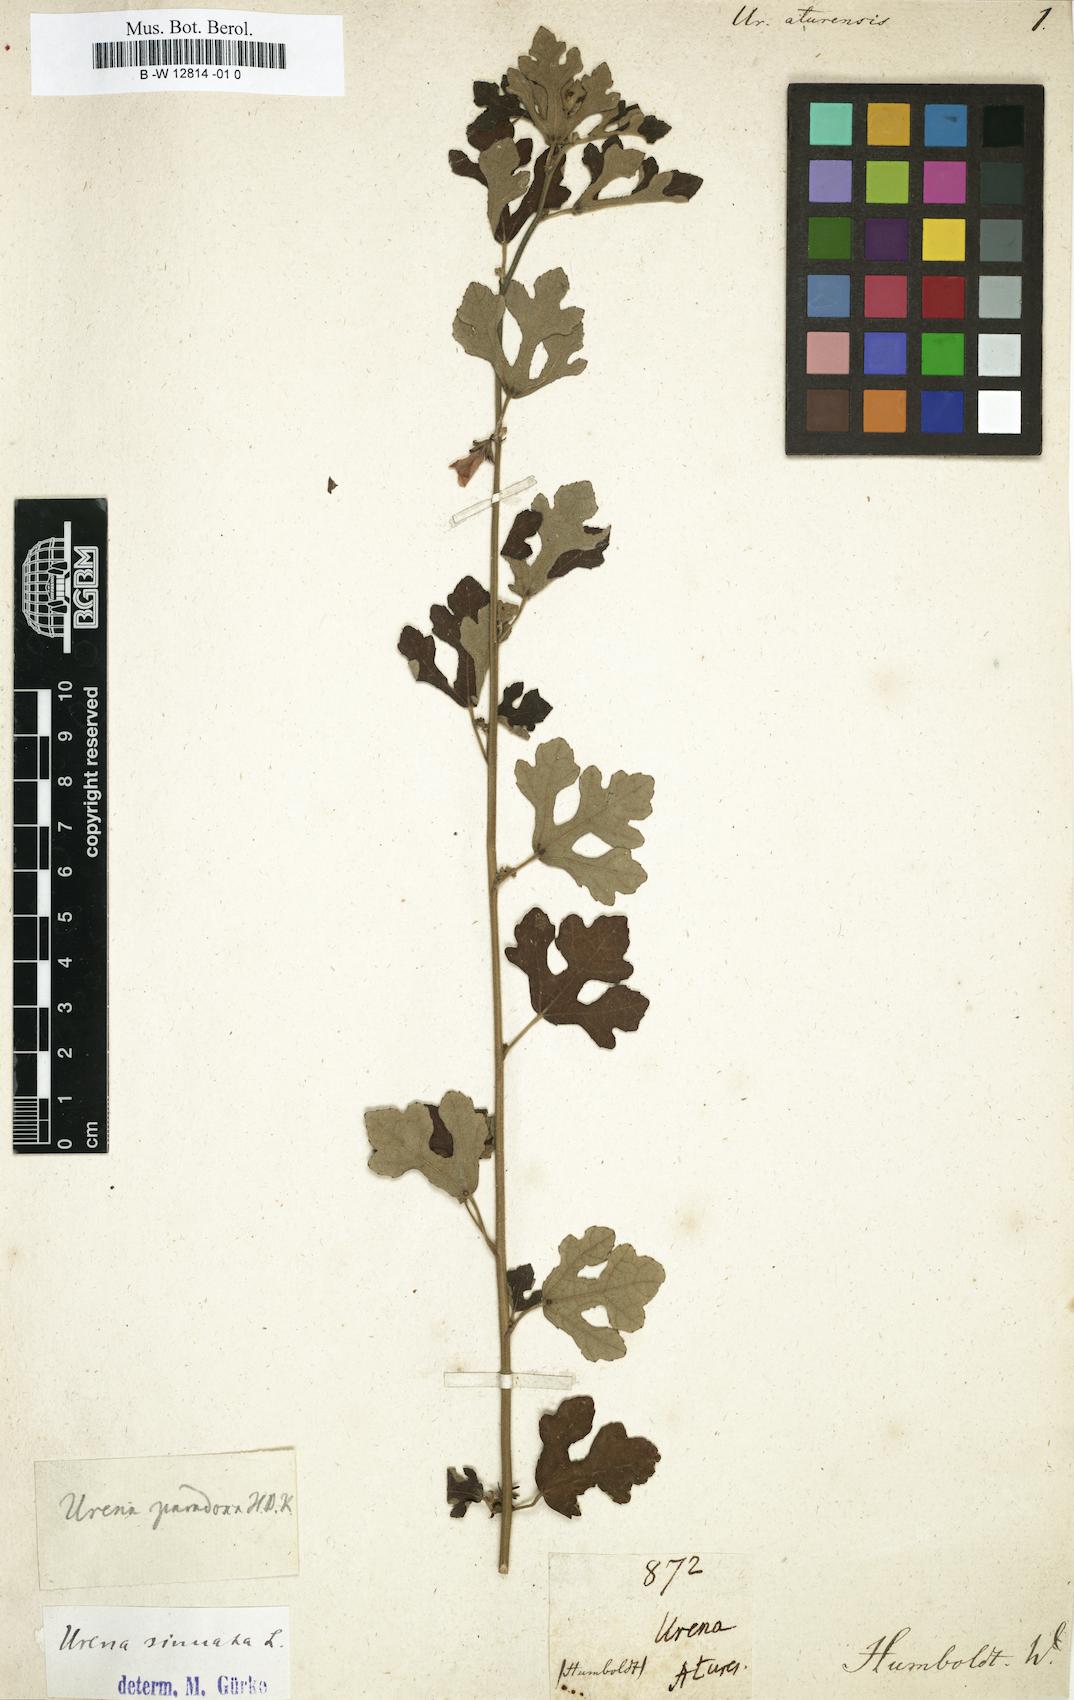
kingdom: Plantae
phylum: Tracheophyta
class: Magnoliopsida
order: Malvales
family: Malvaceae
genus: Urena
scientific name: Urena
